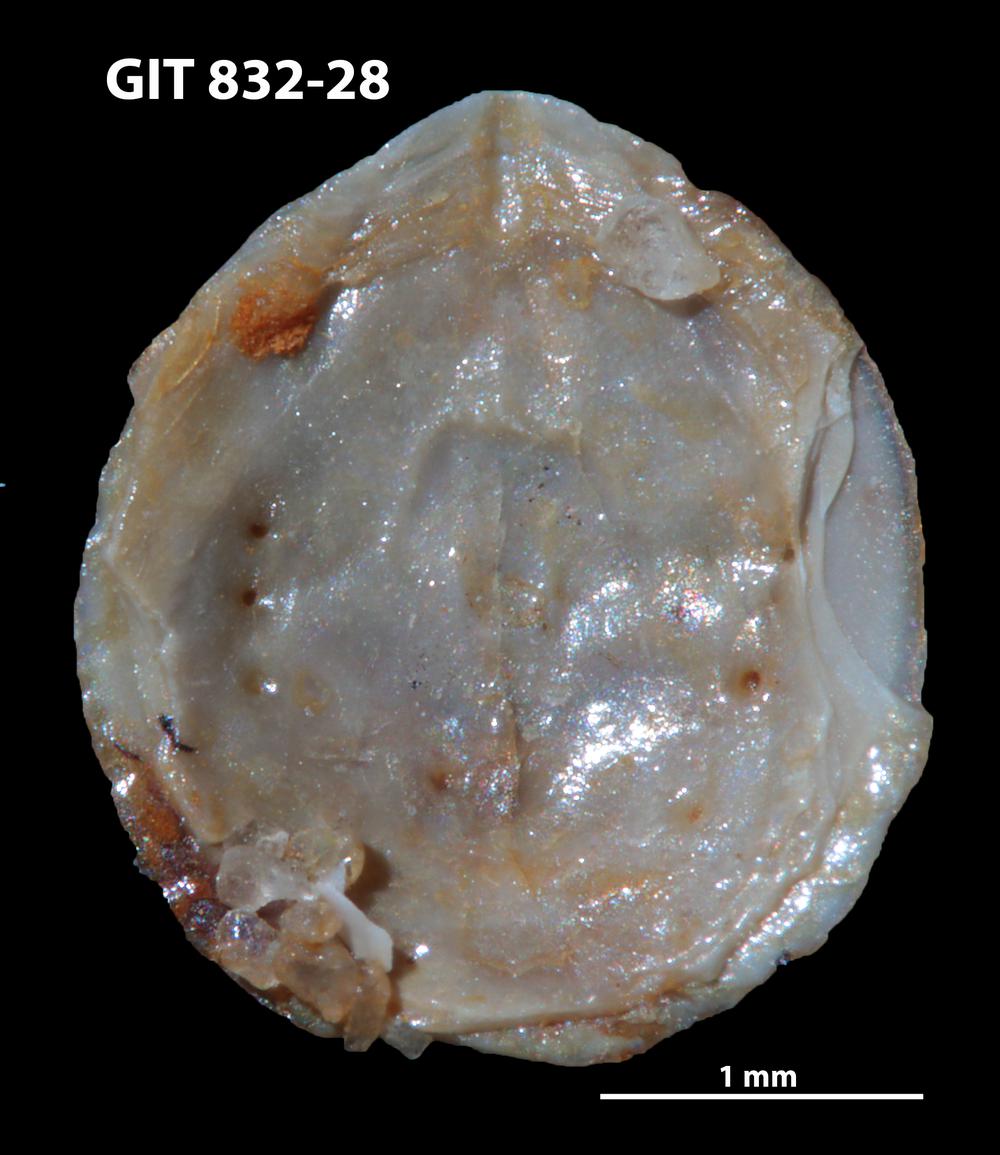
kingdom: Animalia
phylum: Brachiopoda
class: Lingulata
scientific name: Lingulata
